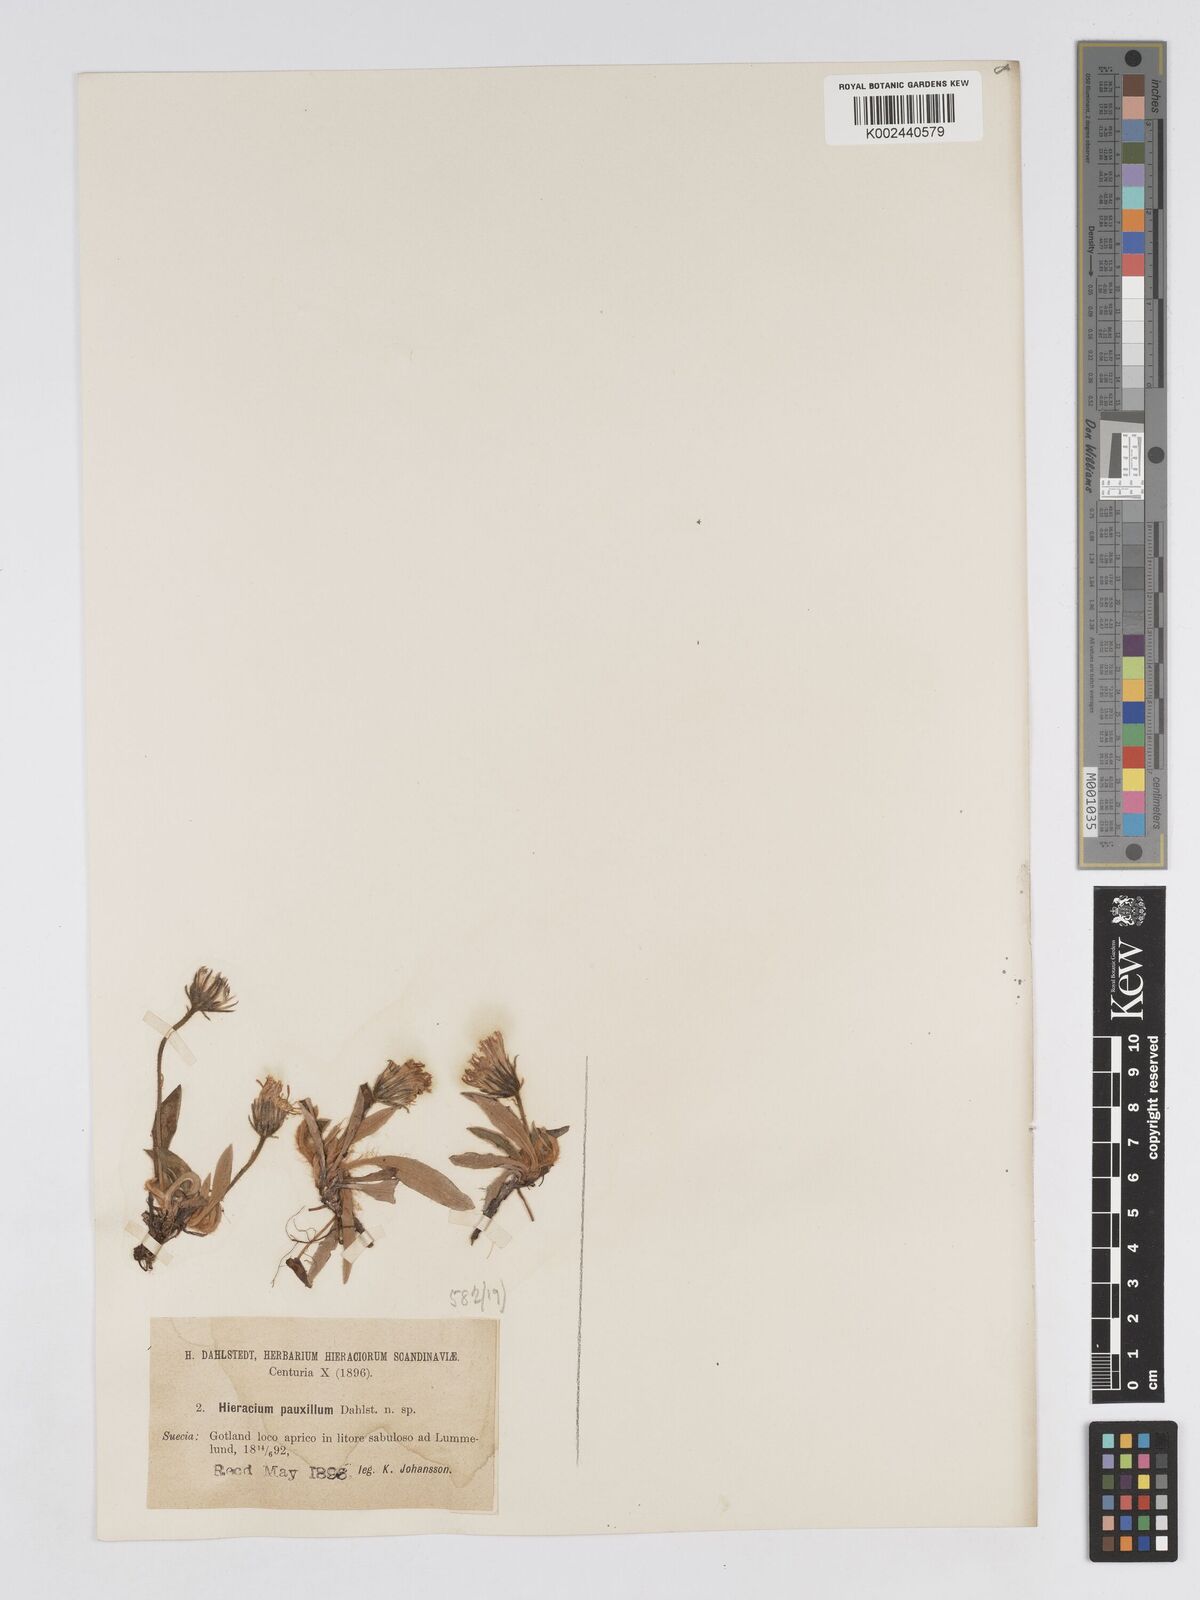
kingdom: Plantae
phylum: Tracheophyta
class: Magnoliopsida
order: Asterales
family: Asteraceae
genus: Pilosella
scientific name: Pilosella longisquama
